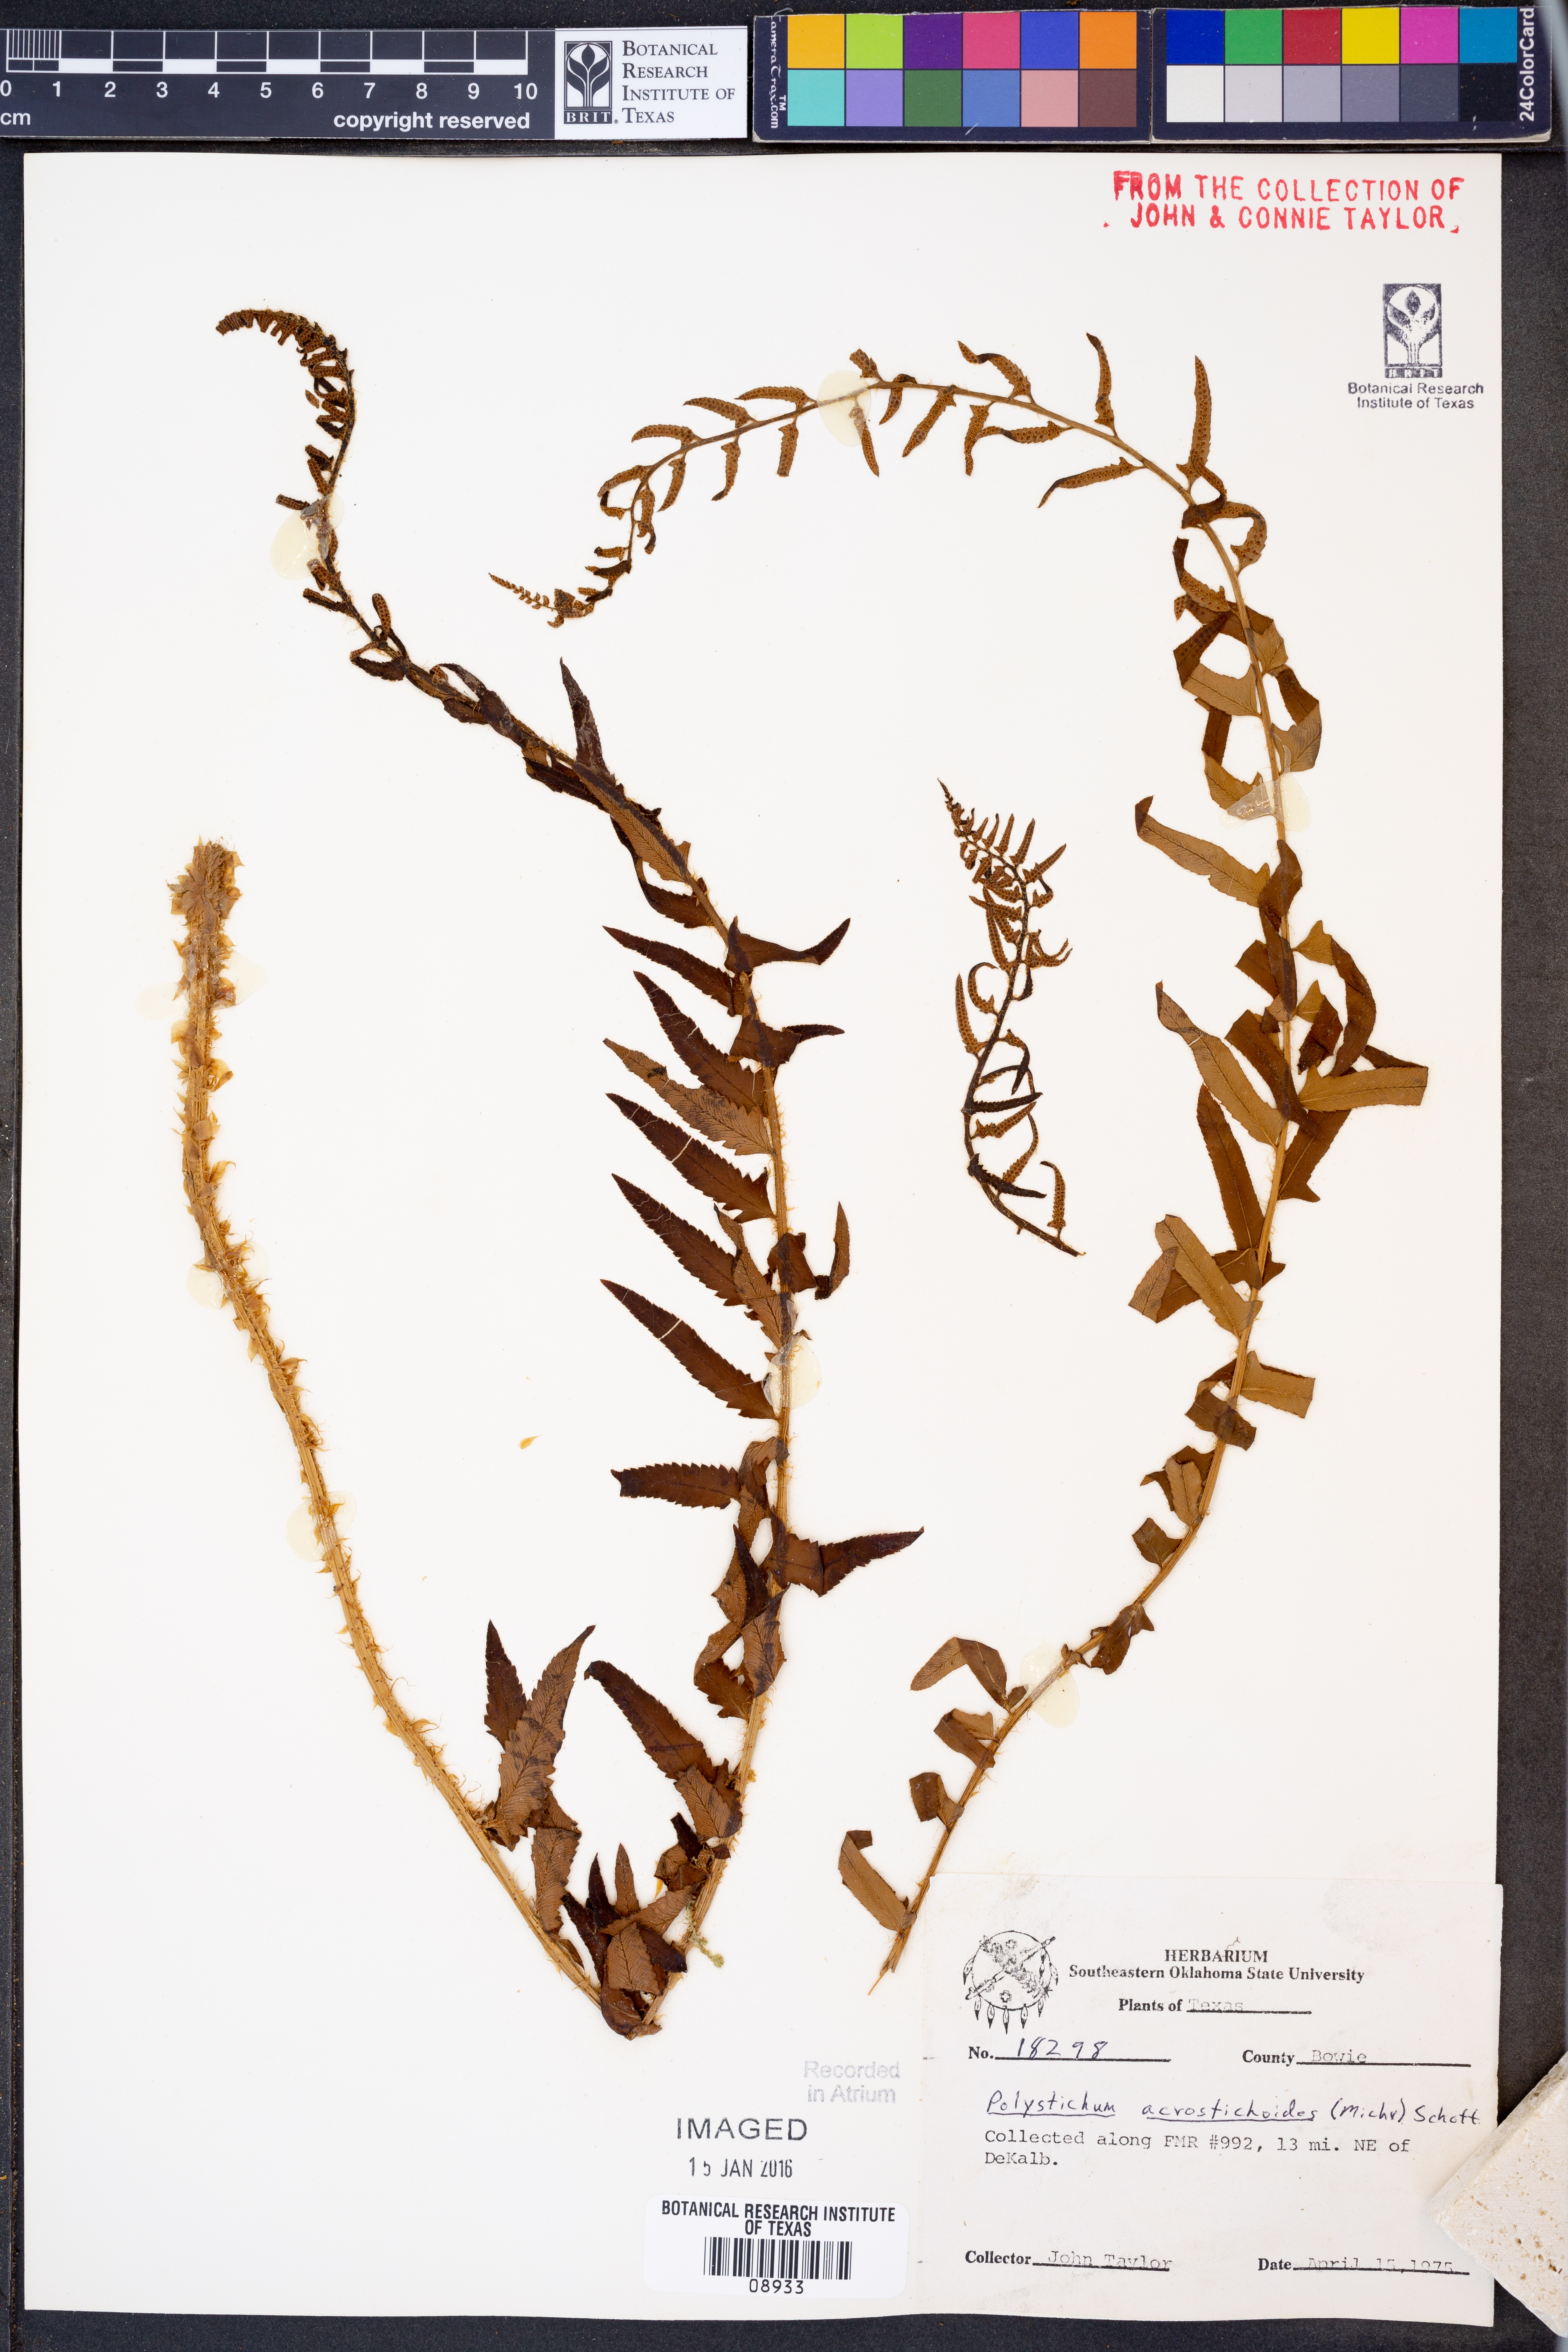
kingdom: Plantae
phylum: Tracheophyta
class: Polypodiopsida
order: Polypodiales
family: Dryopteridaceae
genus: Polystichum
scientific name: Polystichum acrostichoides
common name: Christmas fern
